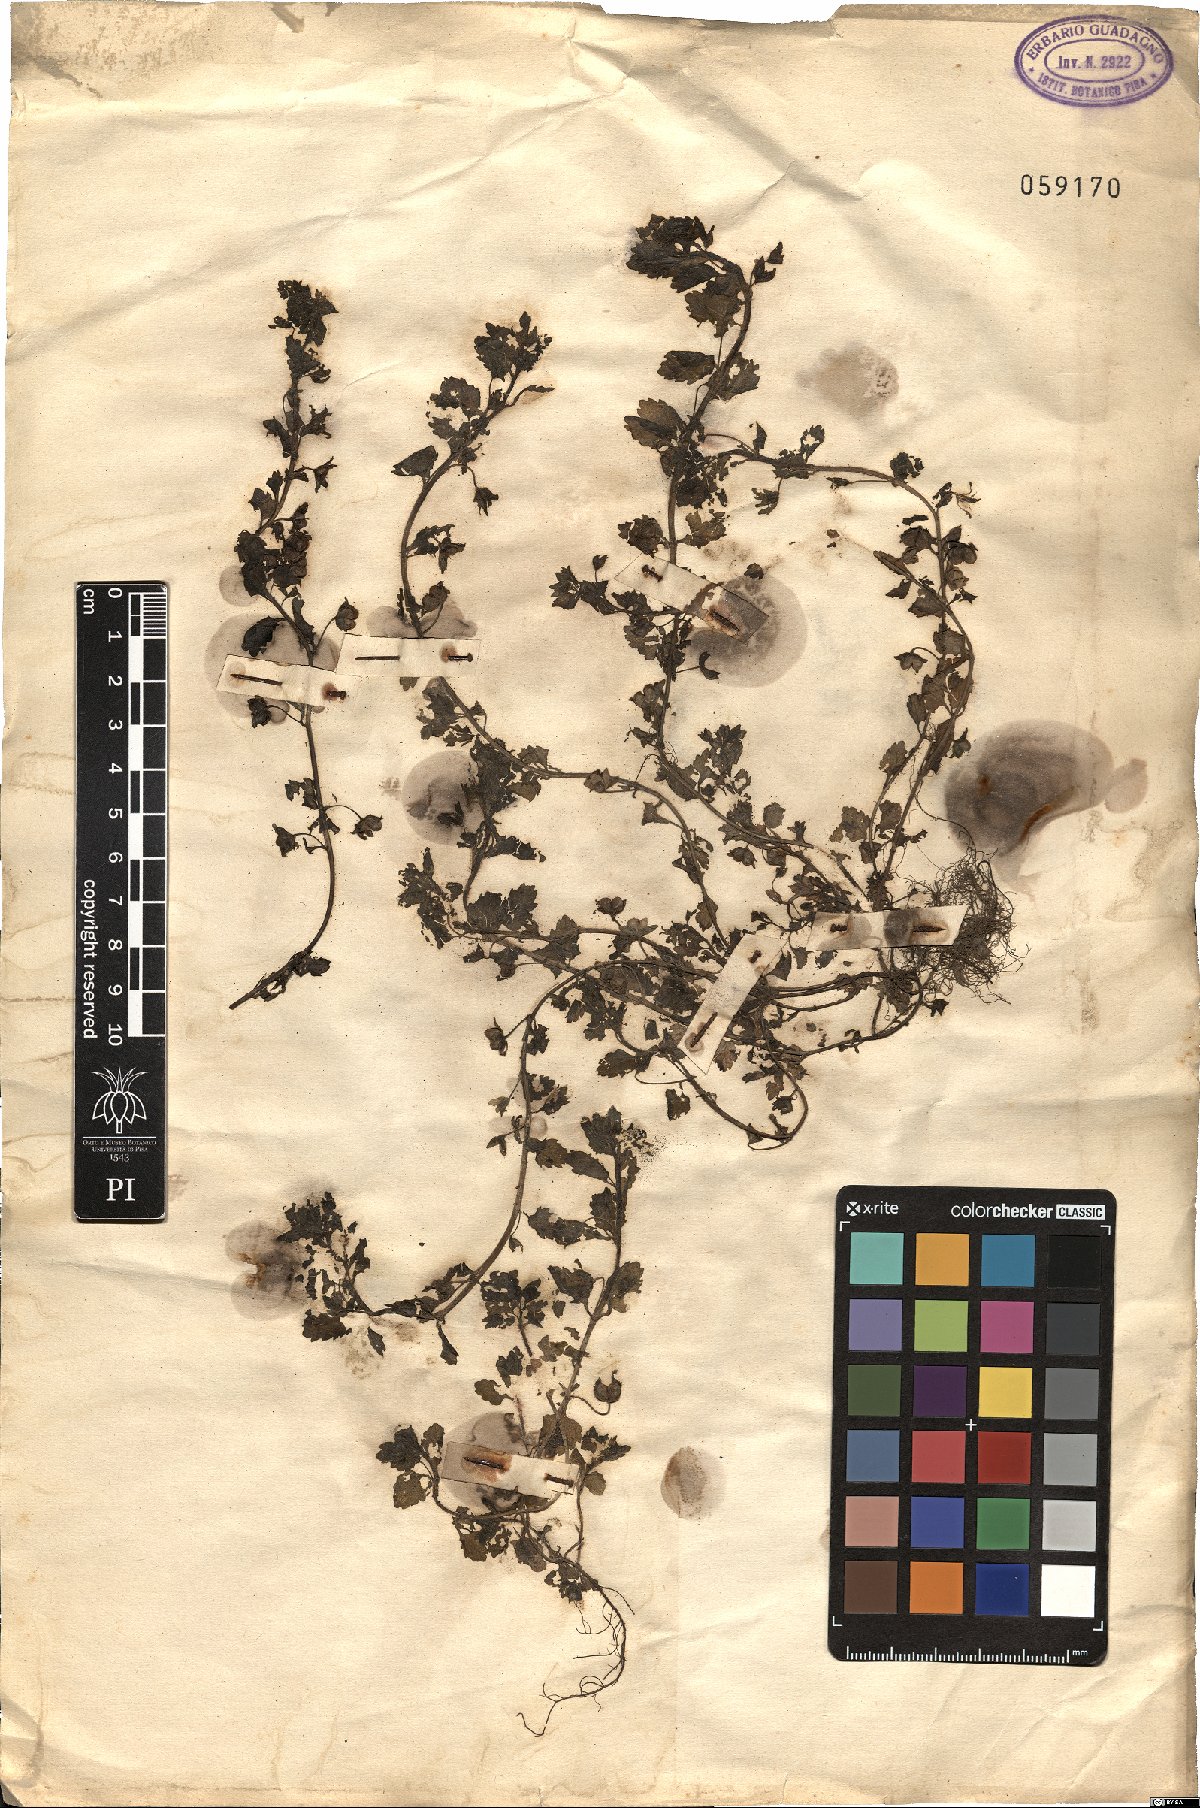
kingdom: Plantae
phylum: Tracheophyta
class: Magnoliopsida
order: Lamiales
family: Plantaginaceae
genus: Veronica
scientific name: Veronica
